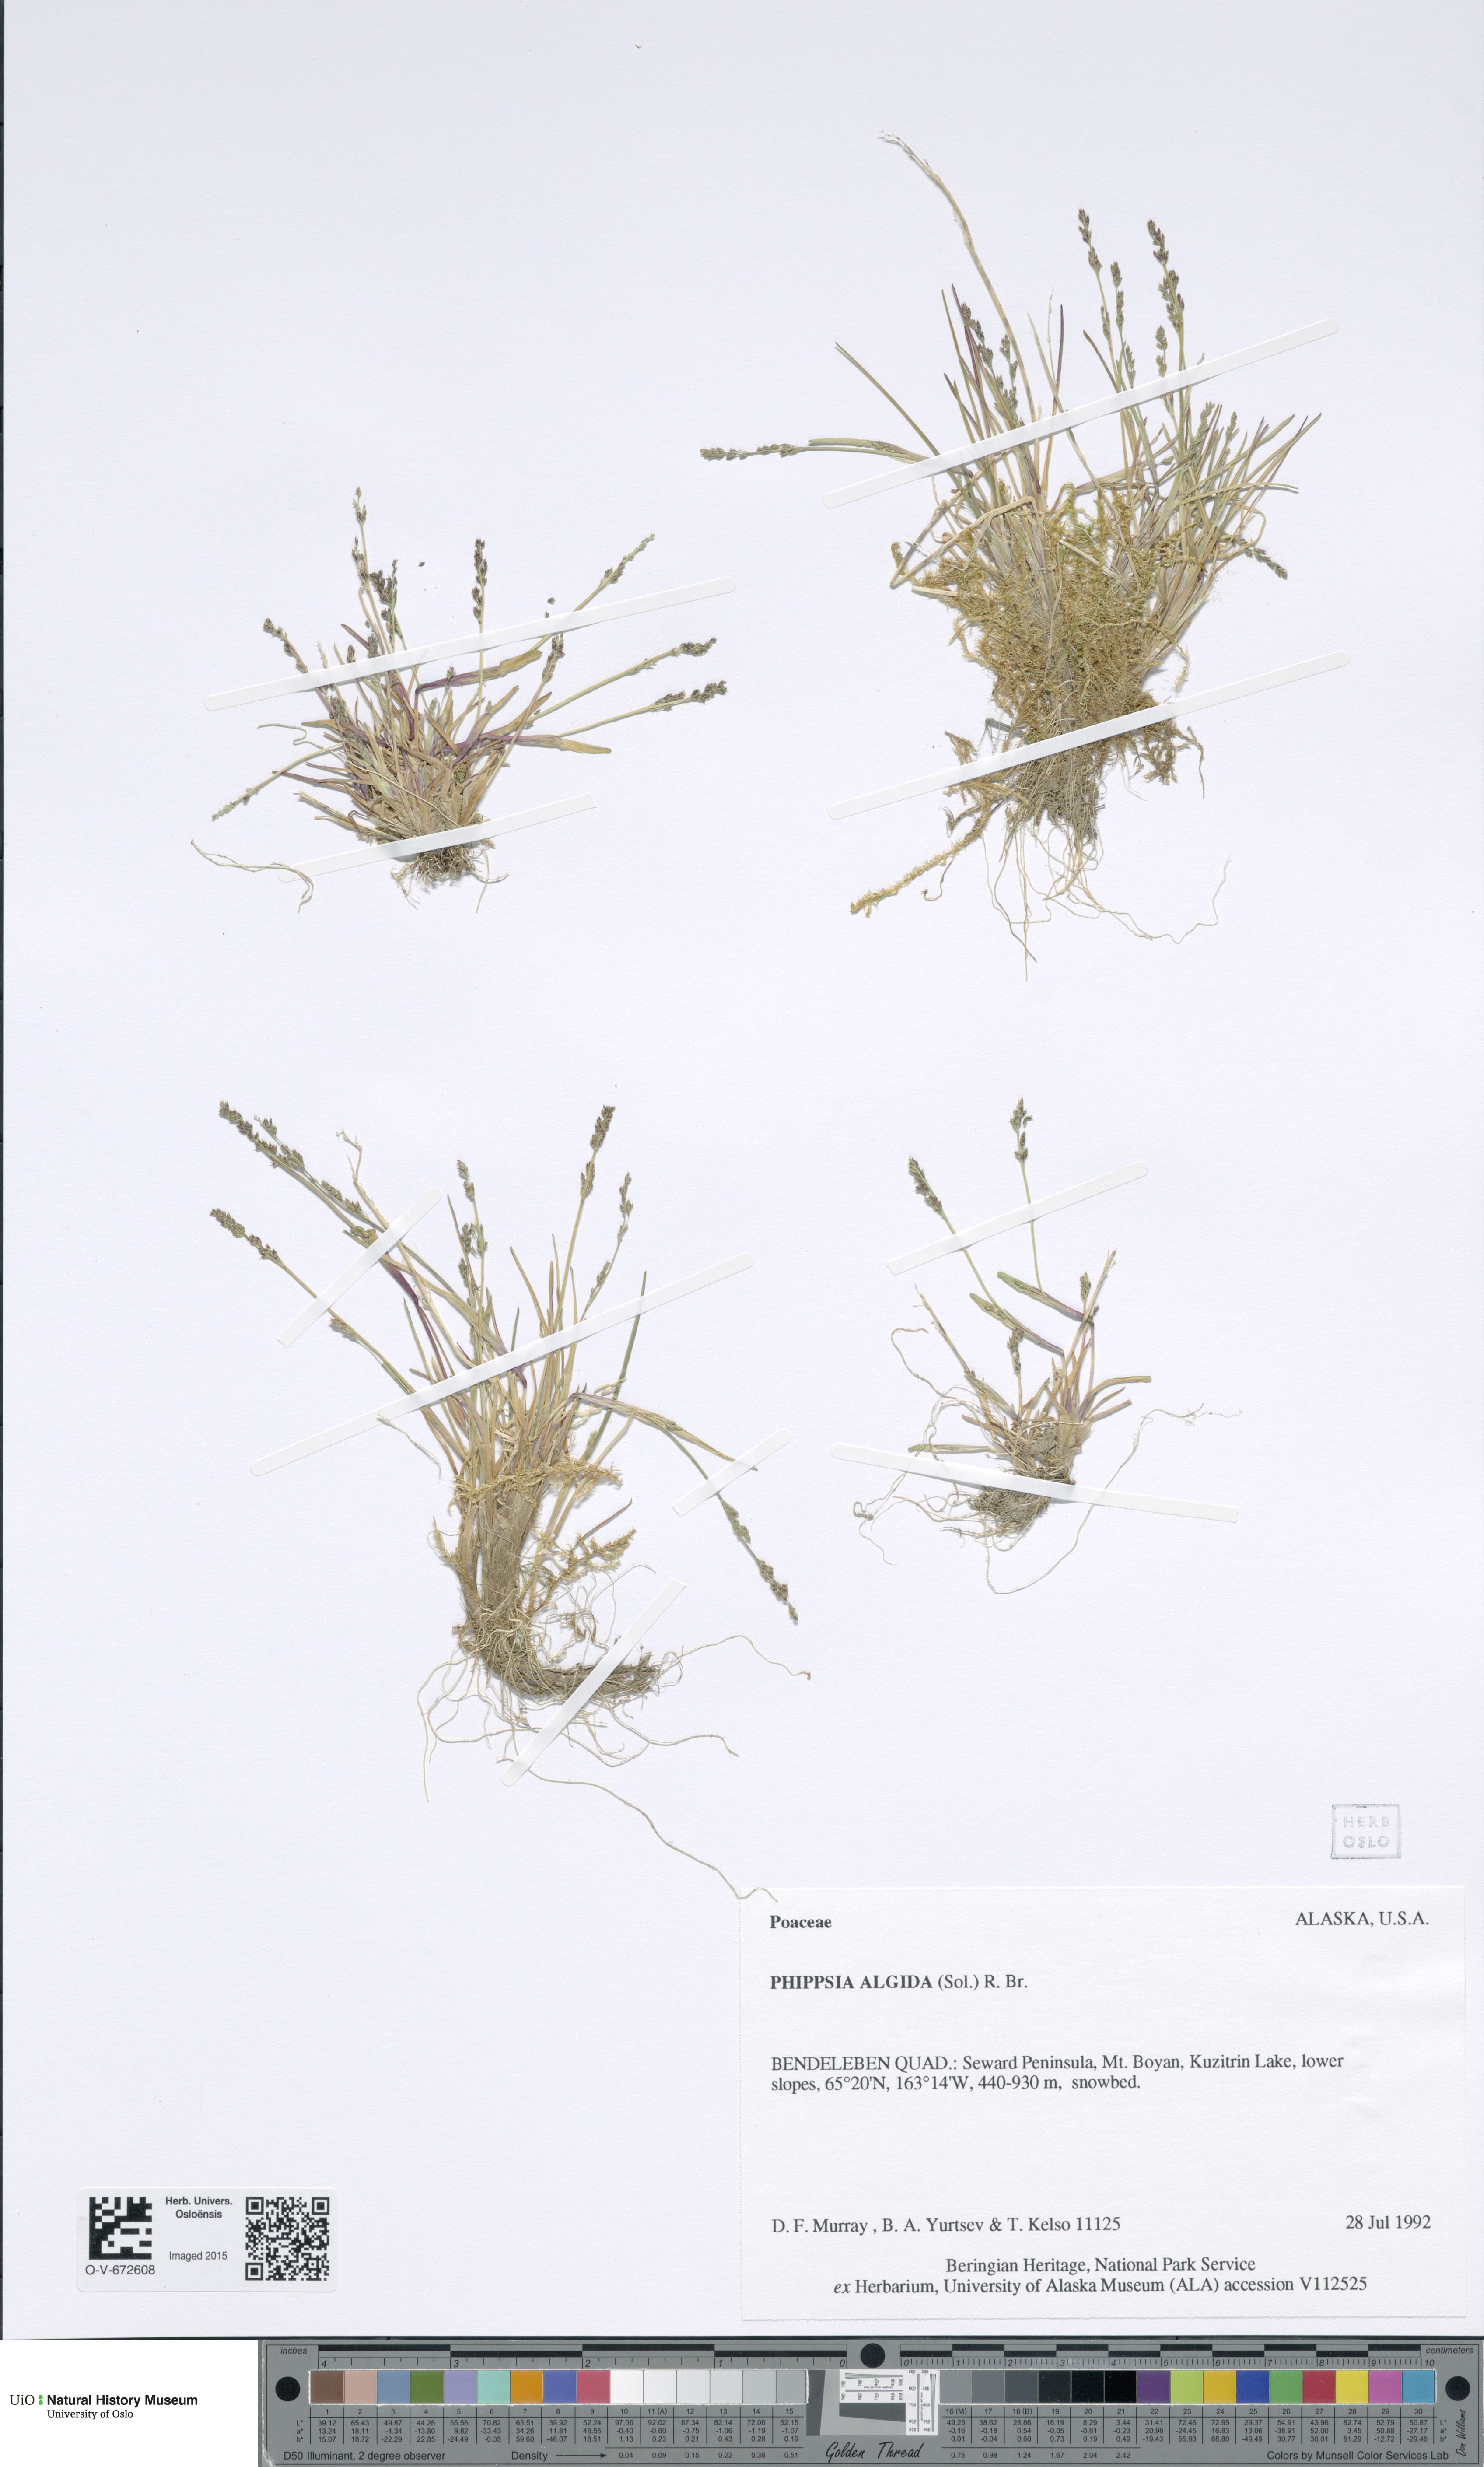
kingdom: Plantae
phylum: Tracheophyta
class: Liliopsida
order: Poales
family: Poaceae
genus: Phippsia
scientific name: Phippsia algida
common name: Ice grass
